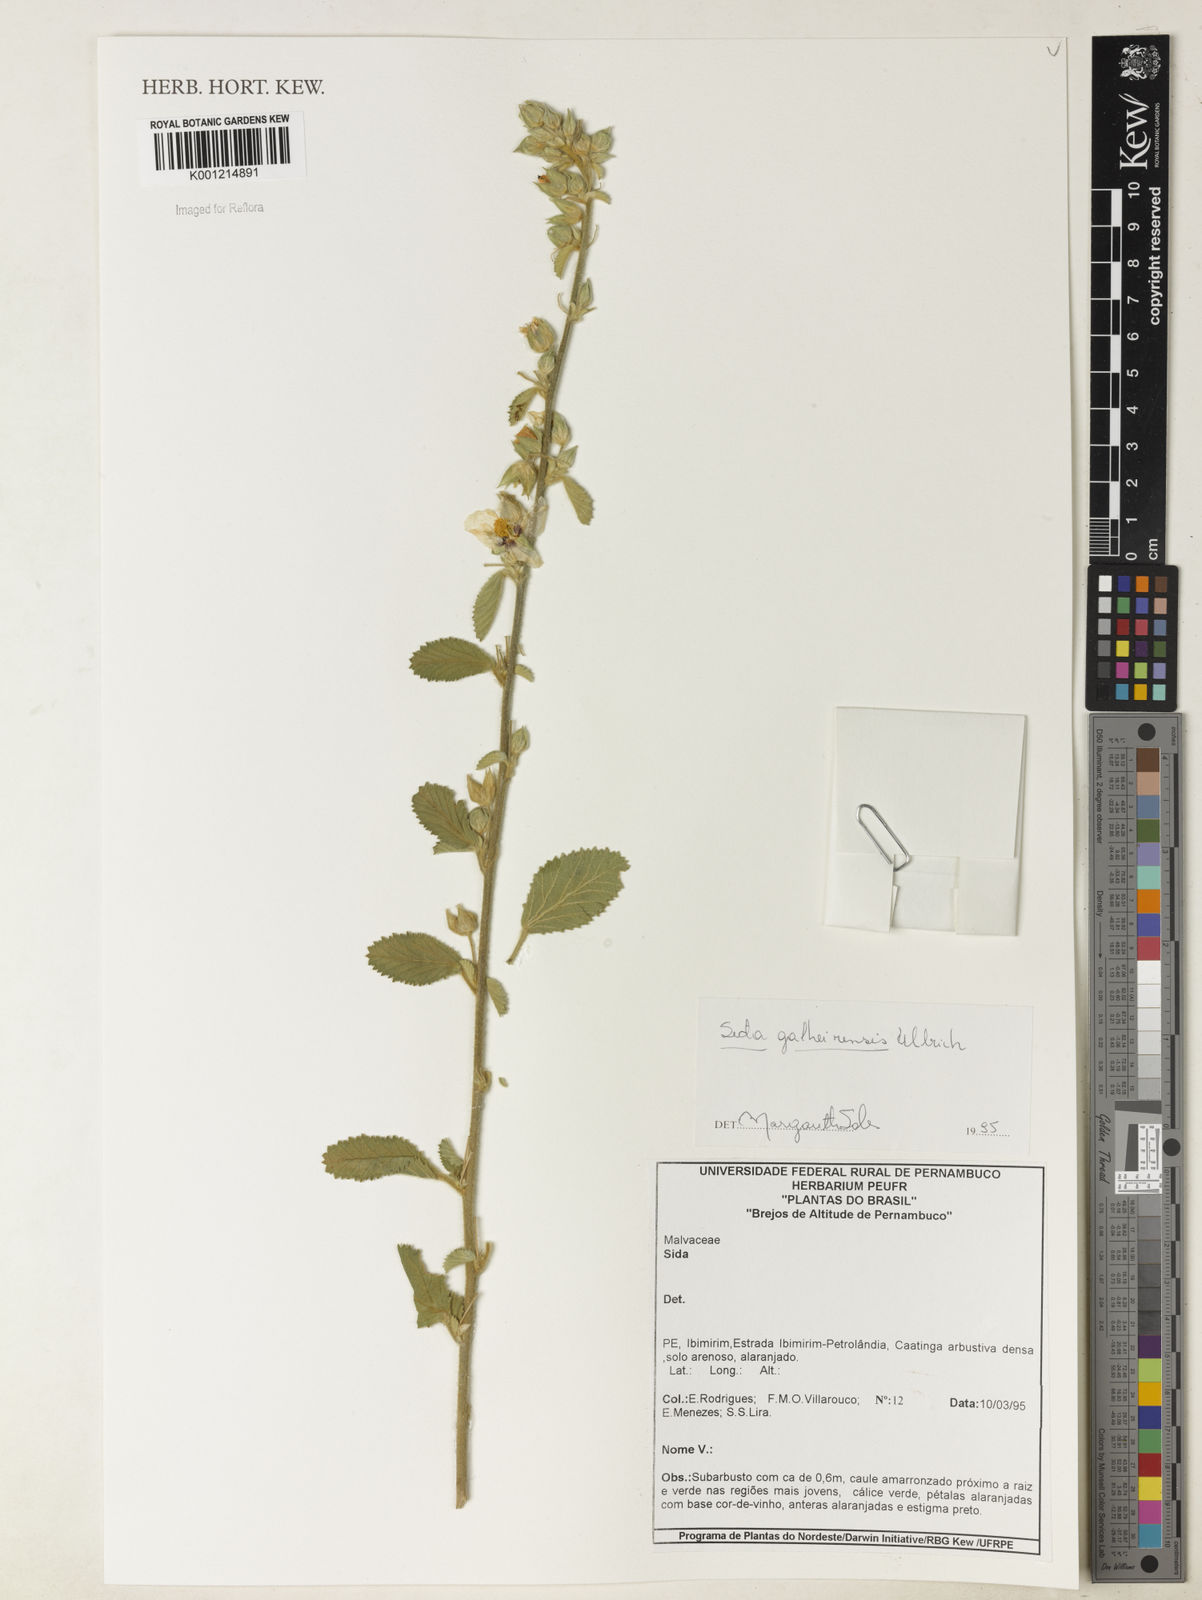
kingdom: Plantae
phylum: Tracheophyta
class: Magnoliopsida
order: Malvales
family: Malvaceae
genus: Sida
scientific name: Sida galheirensis
